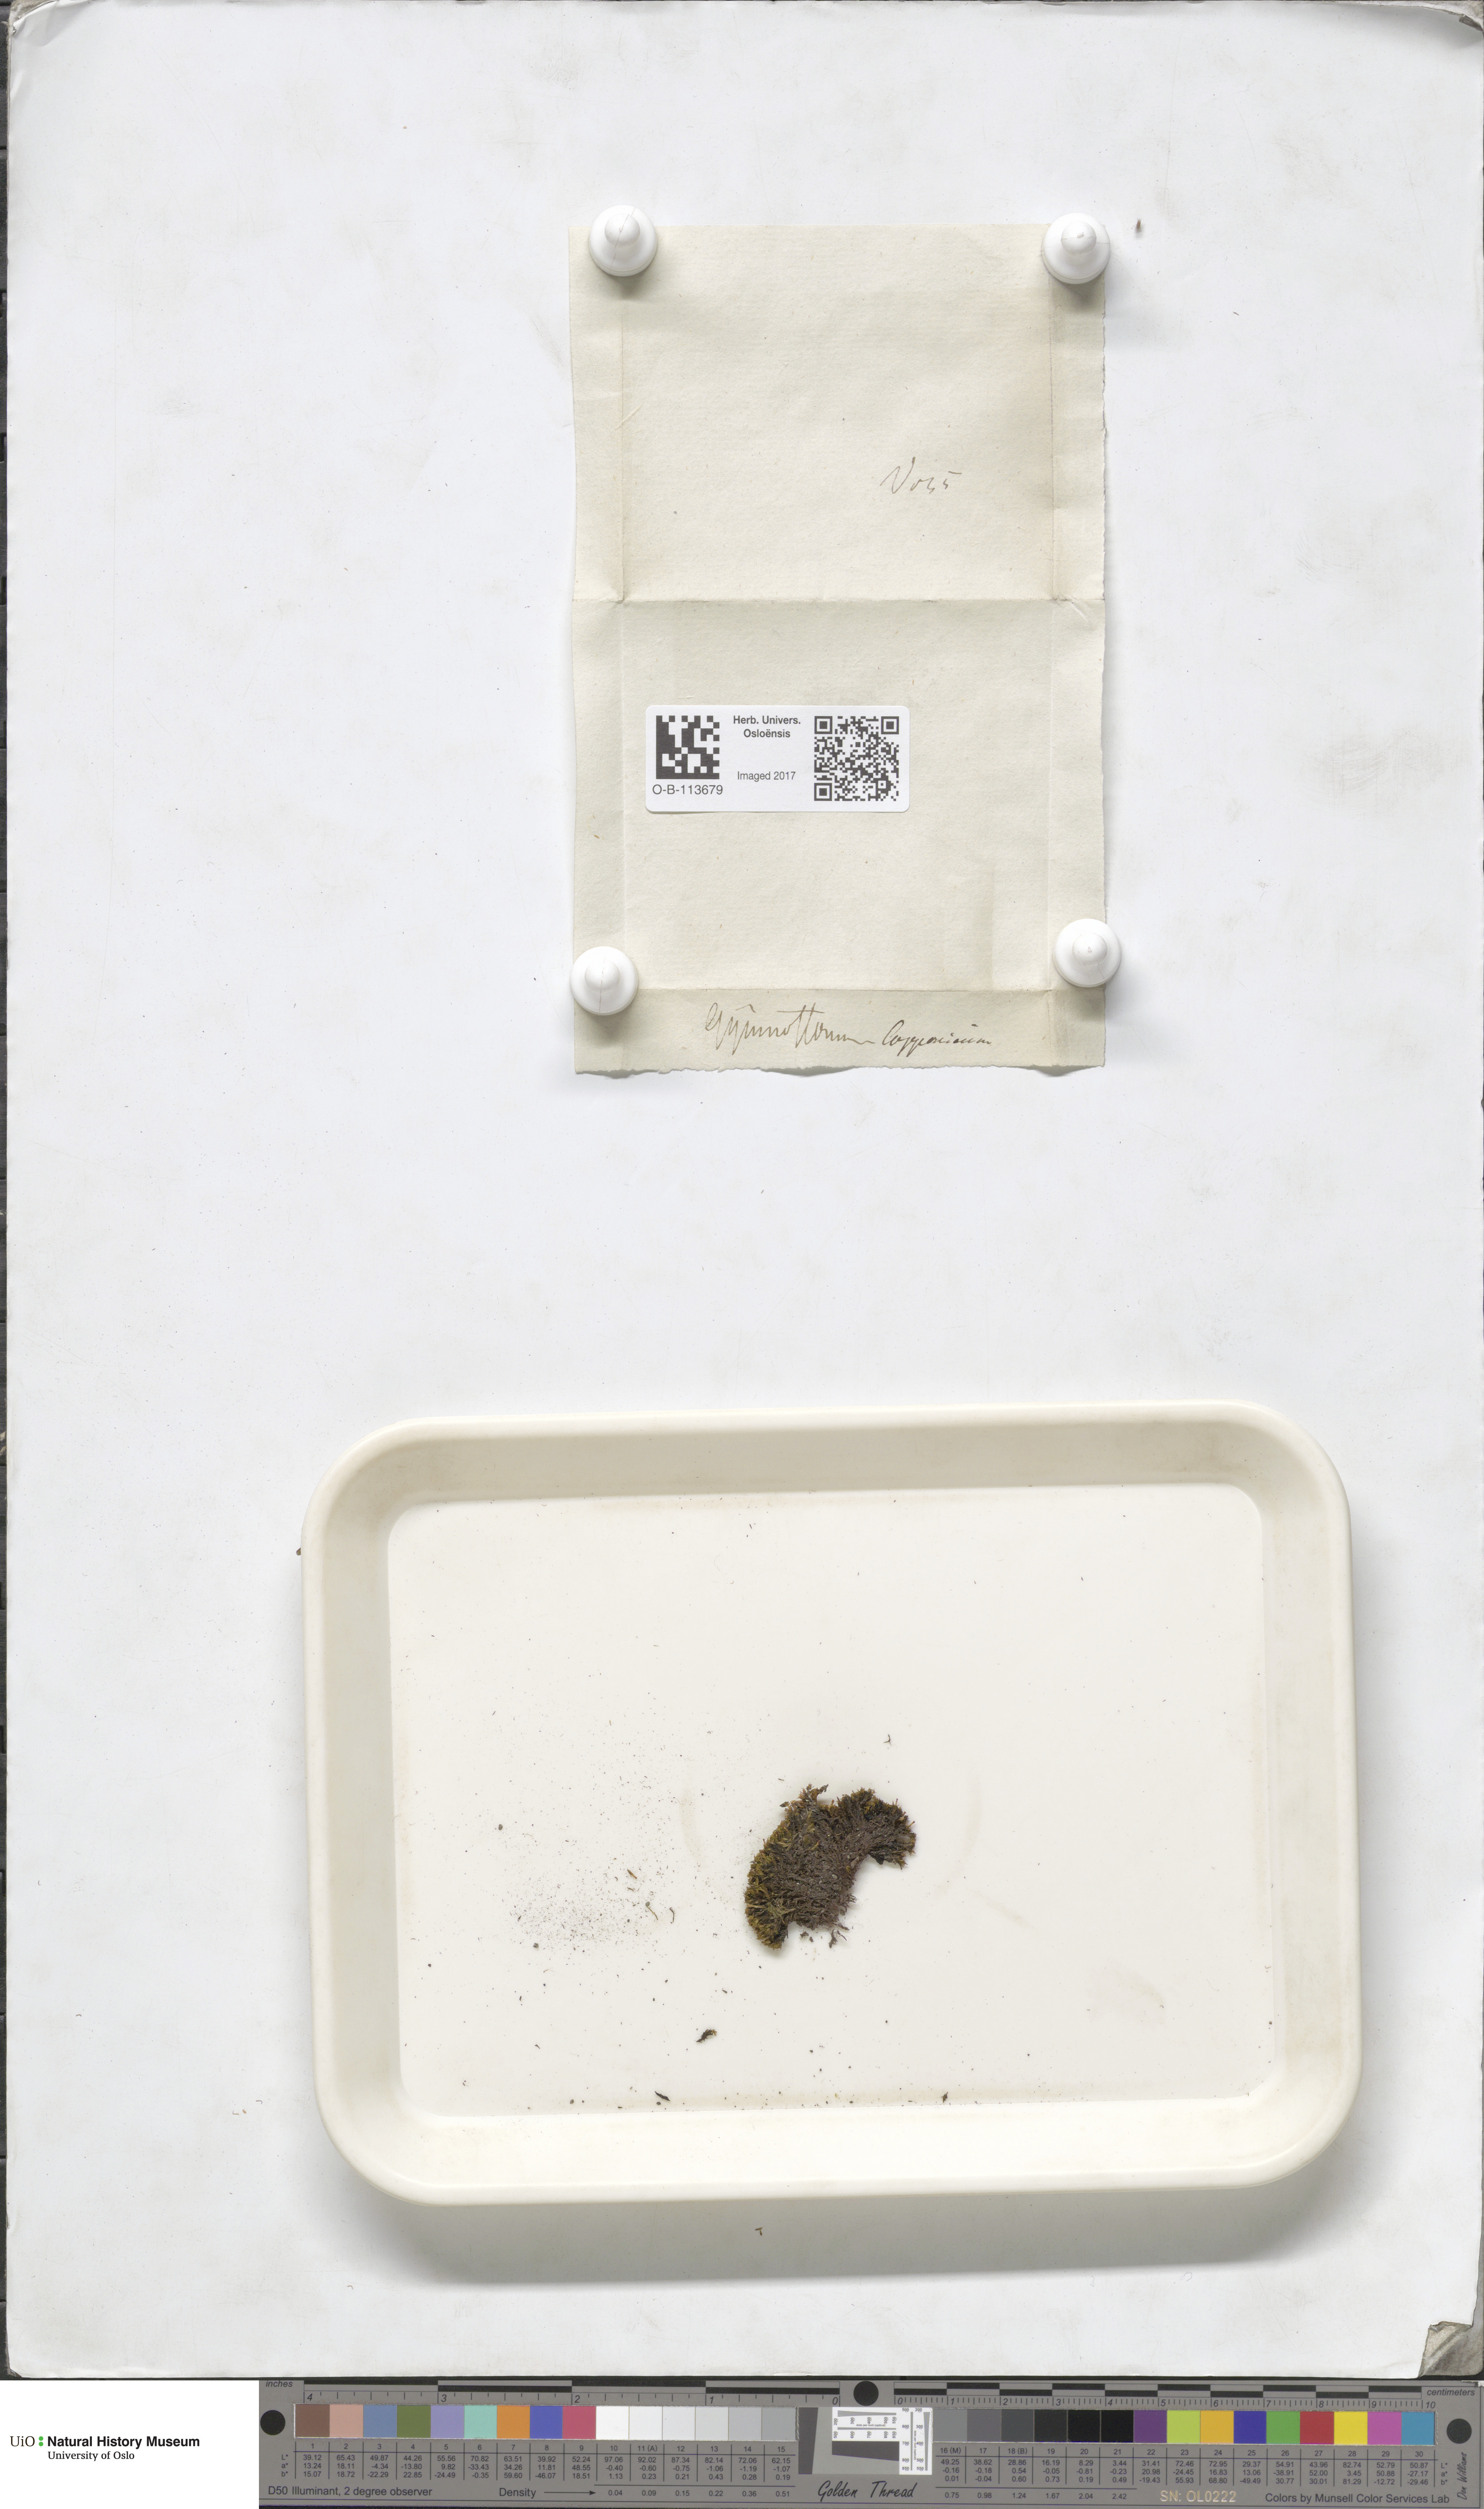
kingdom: Plantae
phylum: Bryophyta
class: Bryopsida
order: Dicranales
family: Amphidiaceae
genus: Amphidium
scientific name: Amphidium lapponicum
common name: Lapland yoke moss
